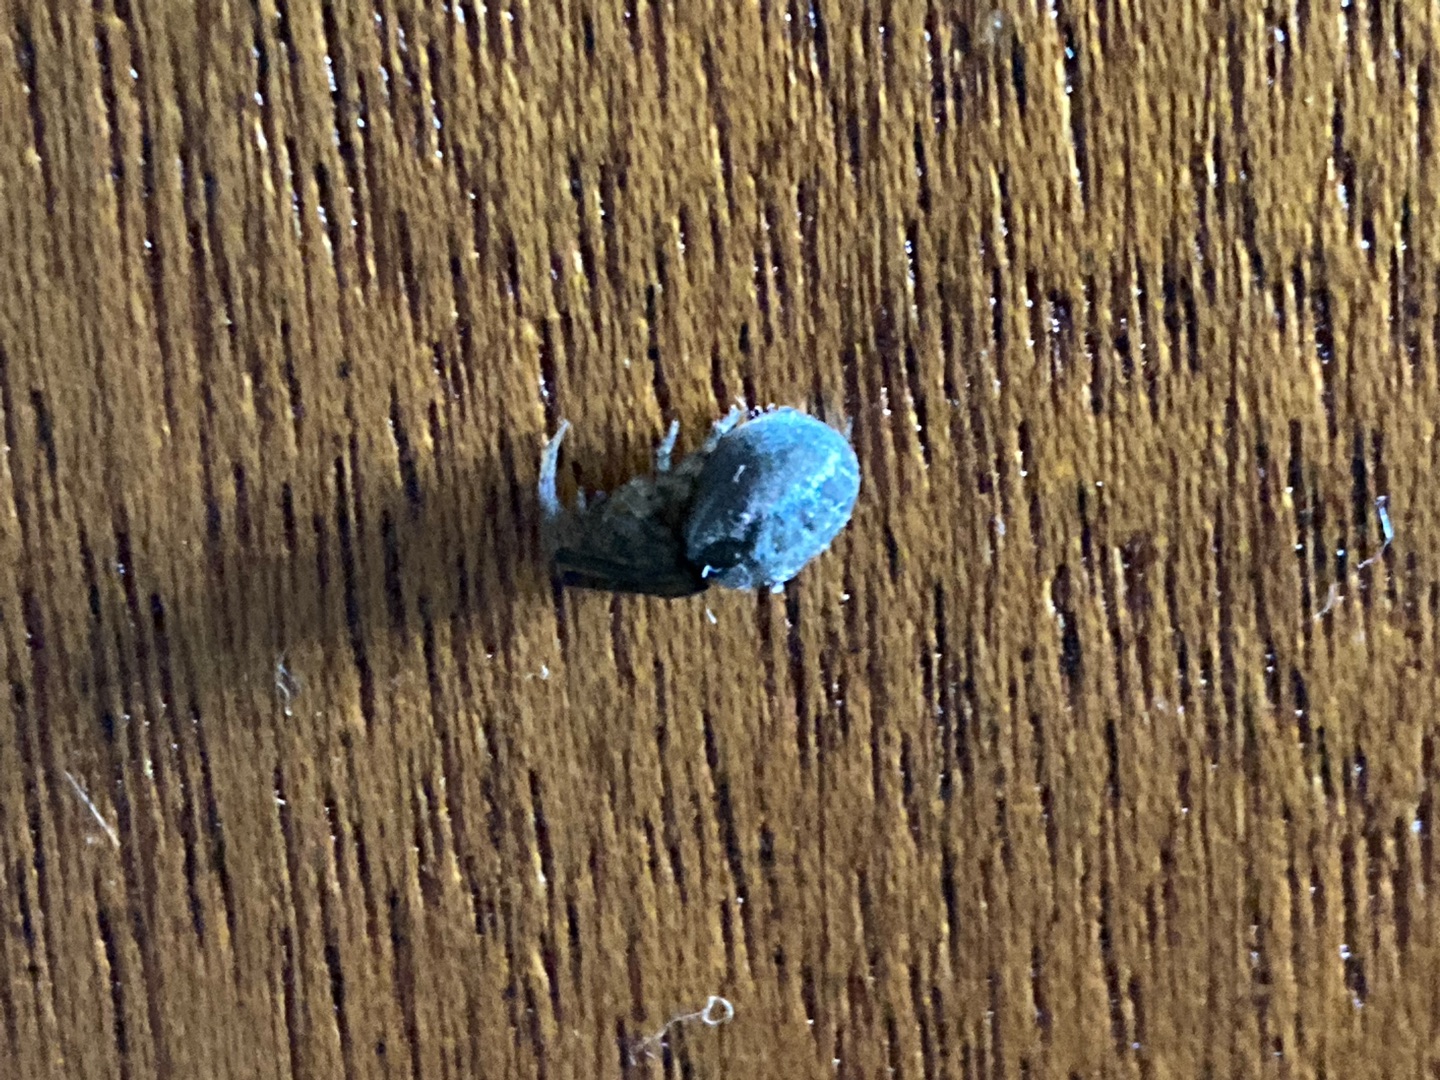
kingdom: Animalia
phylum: Arthropoda
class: Arachnida
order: Araneae
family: Araneidae
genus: Zygiella
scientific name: Zygiella
